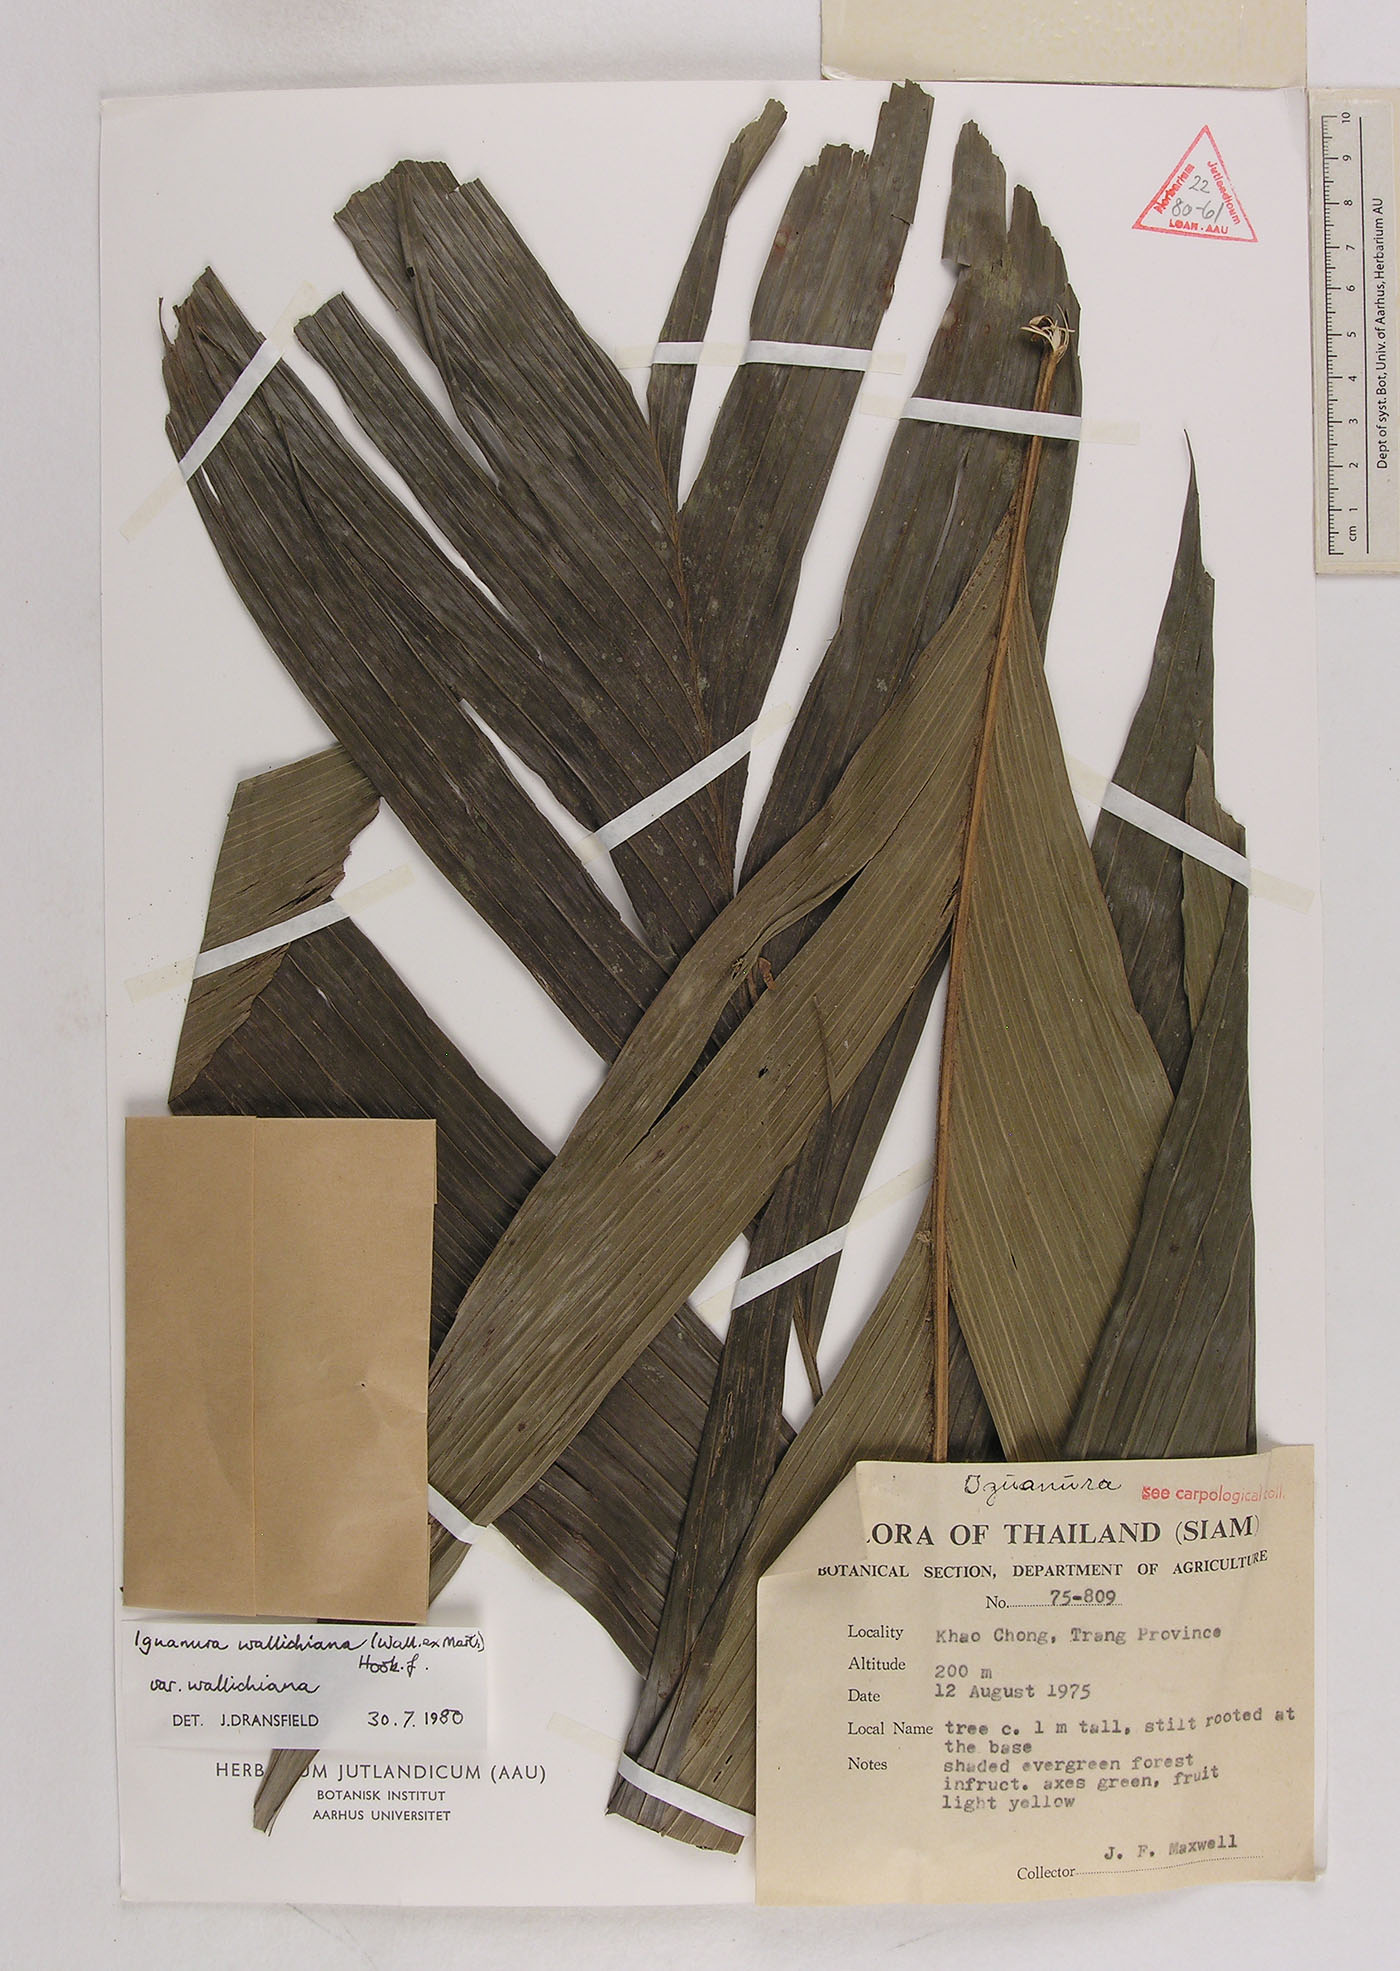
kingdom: Plantae
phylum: Tracheophyta
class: Liliopsida
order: Arecales
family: Arecaceae
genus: Iguanura
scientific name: Iguanura wallichiana
